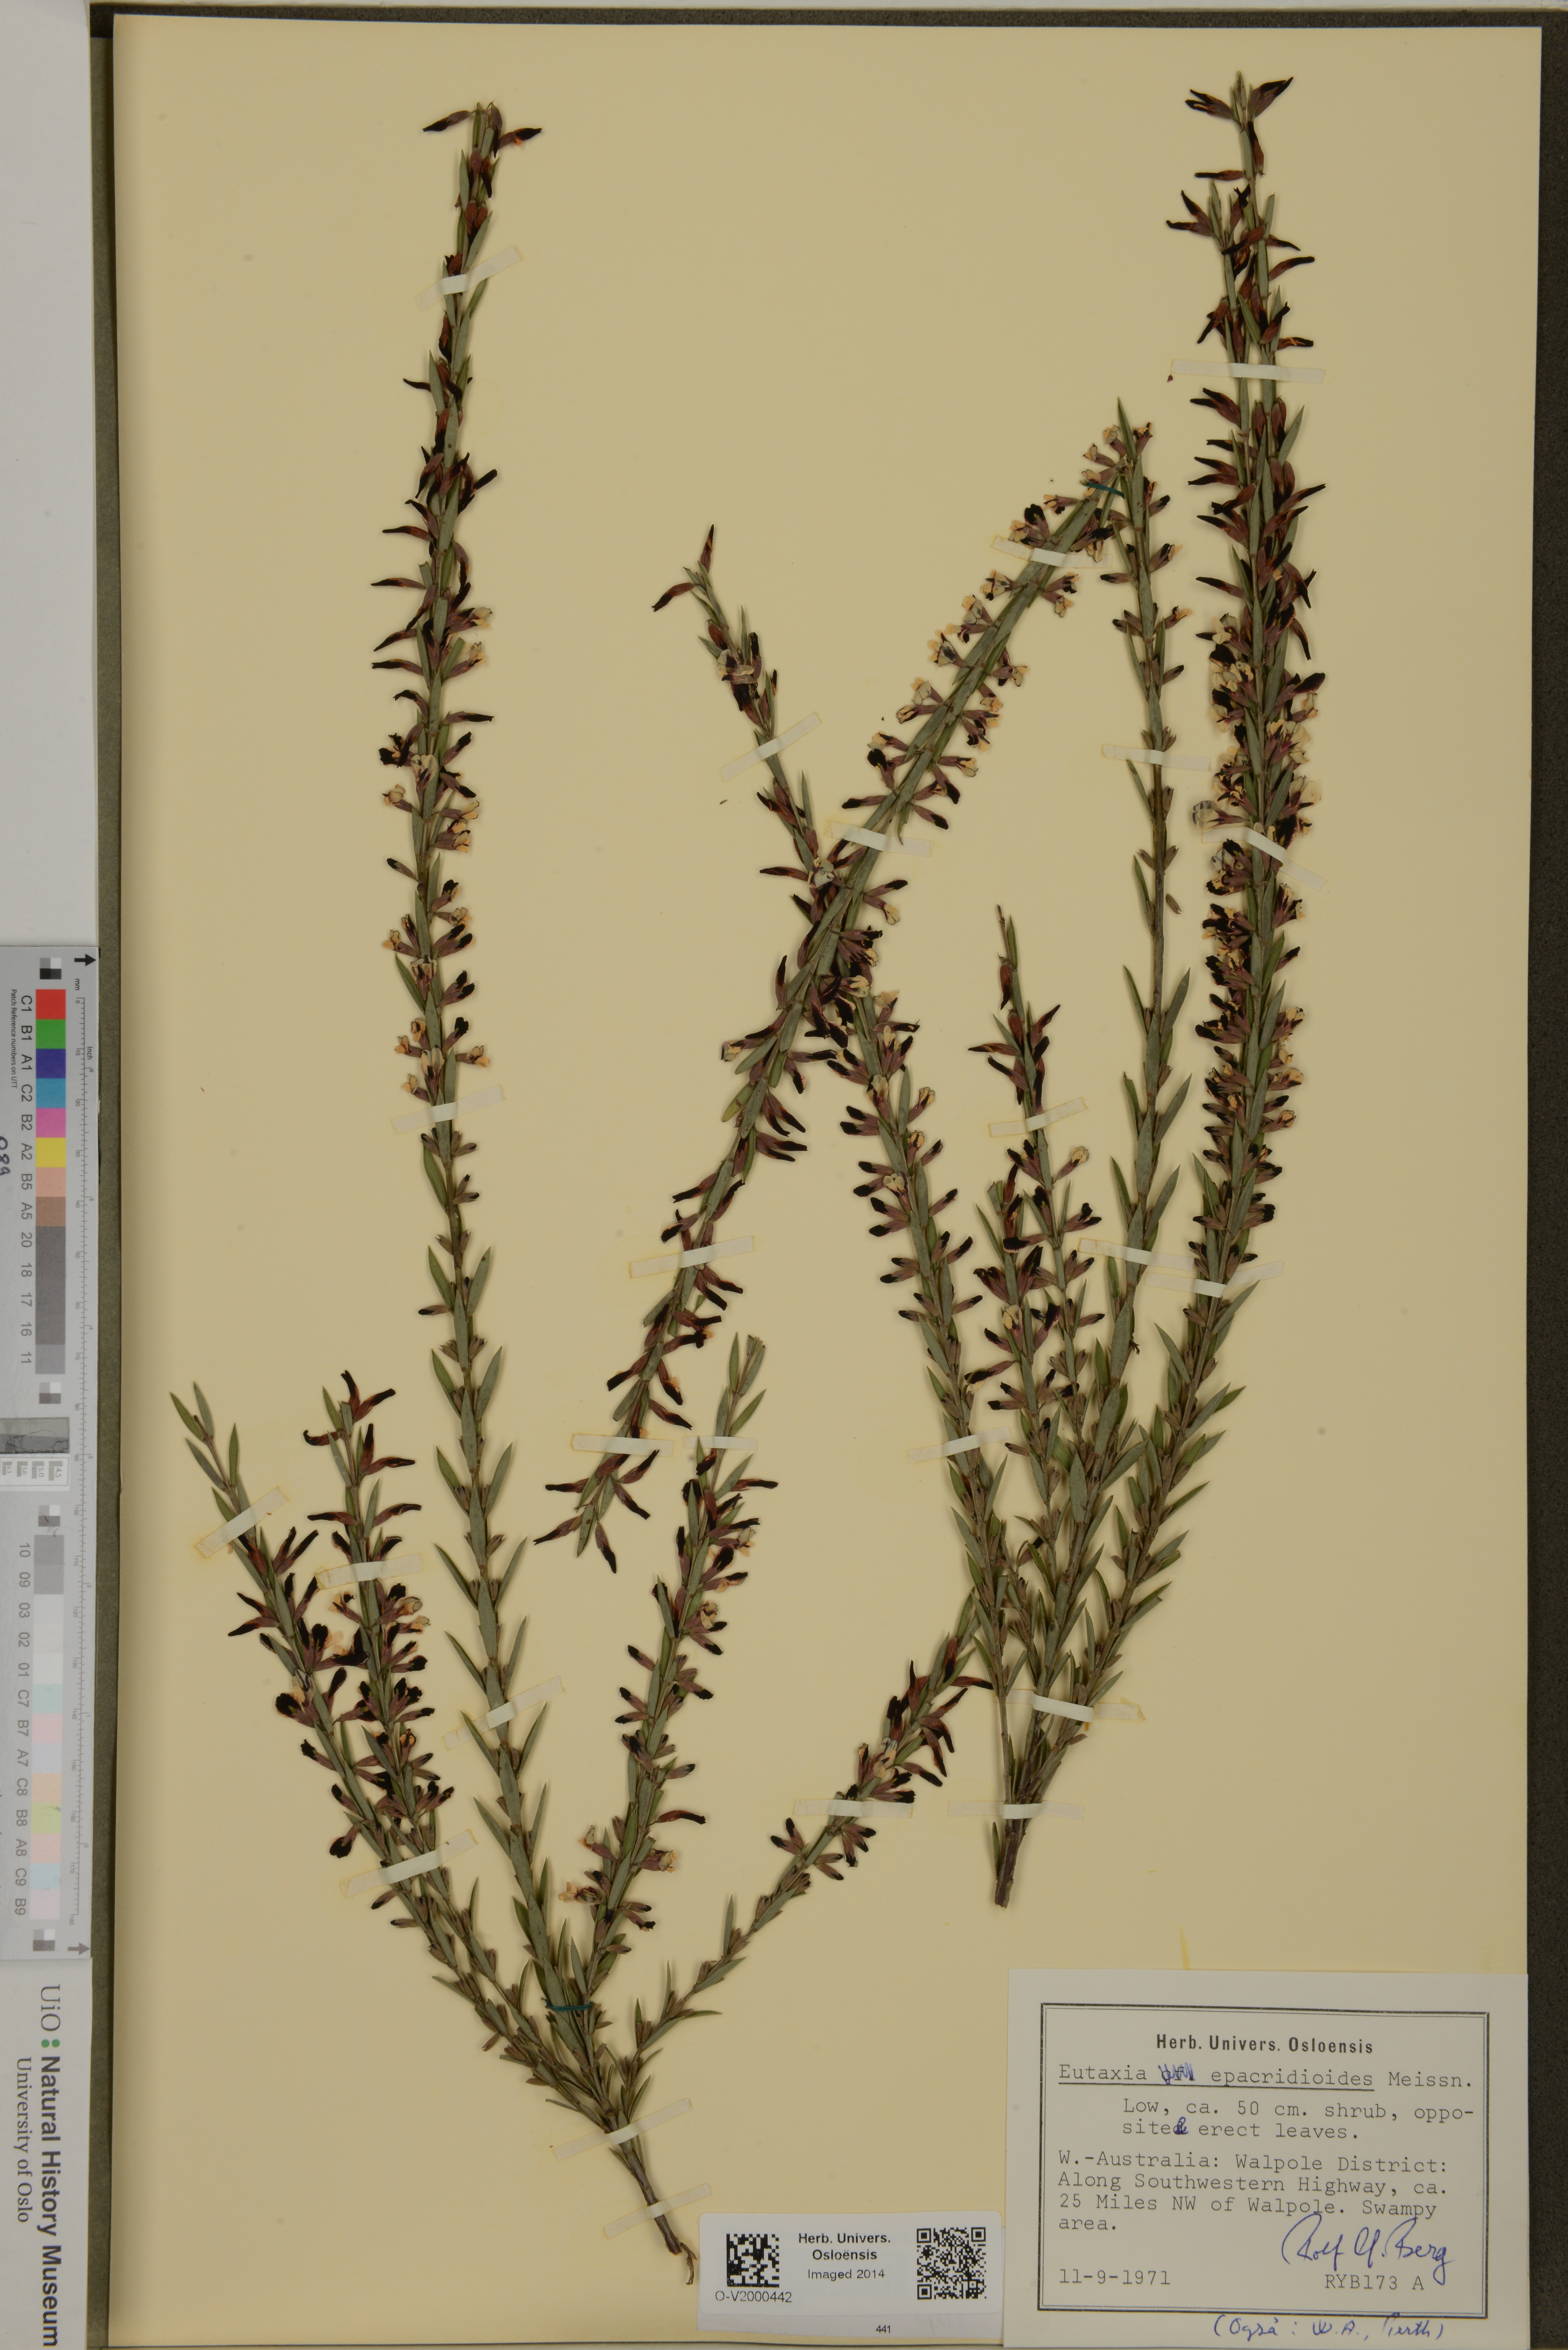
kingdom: Plantae
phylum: Tracheophyta
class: Magnoliopsida
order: Fabales
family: Fabaceae
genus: Eutaxia
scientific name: Eutaxia epacridoides
